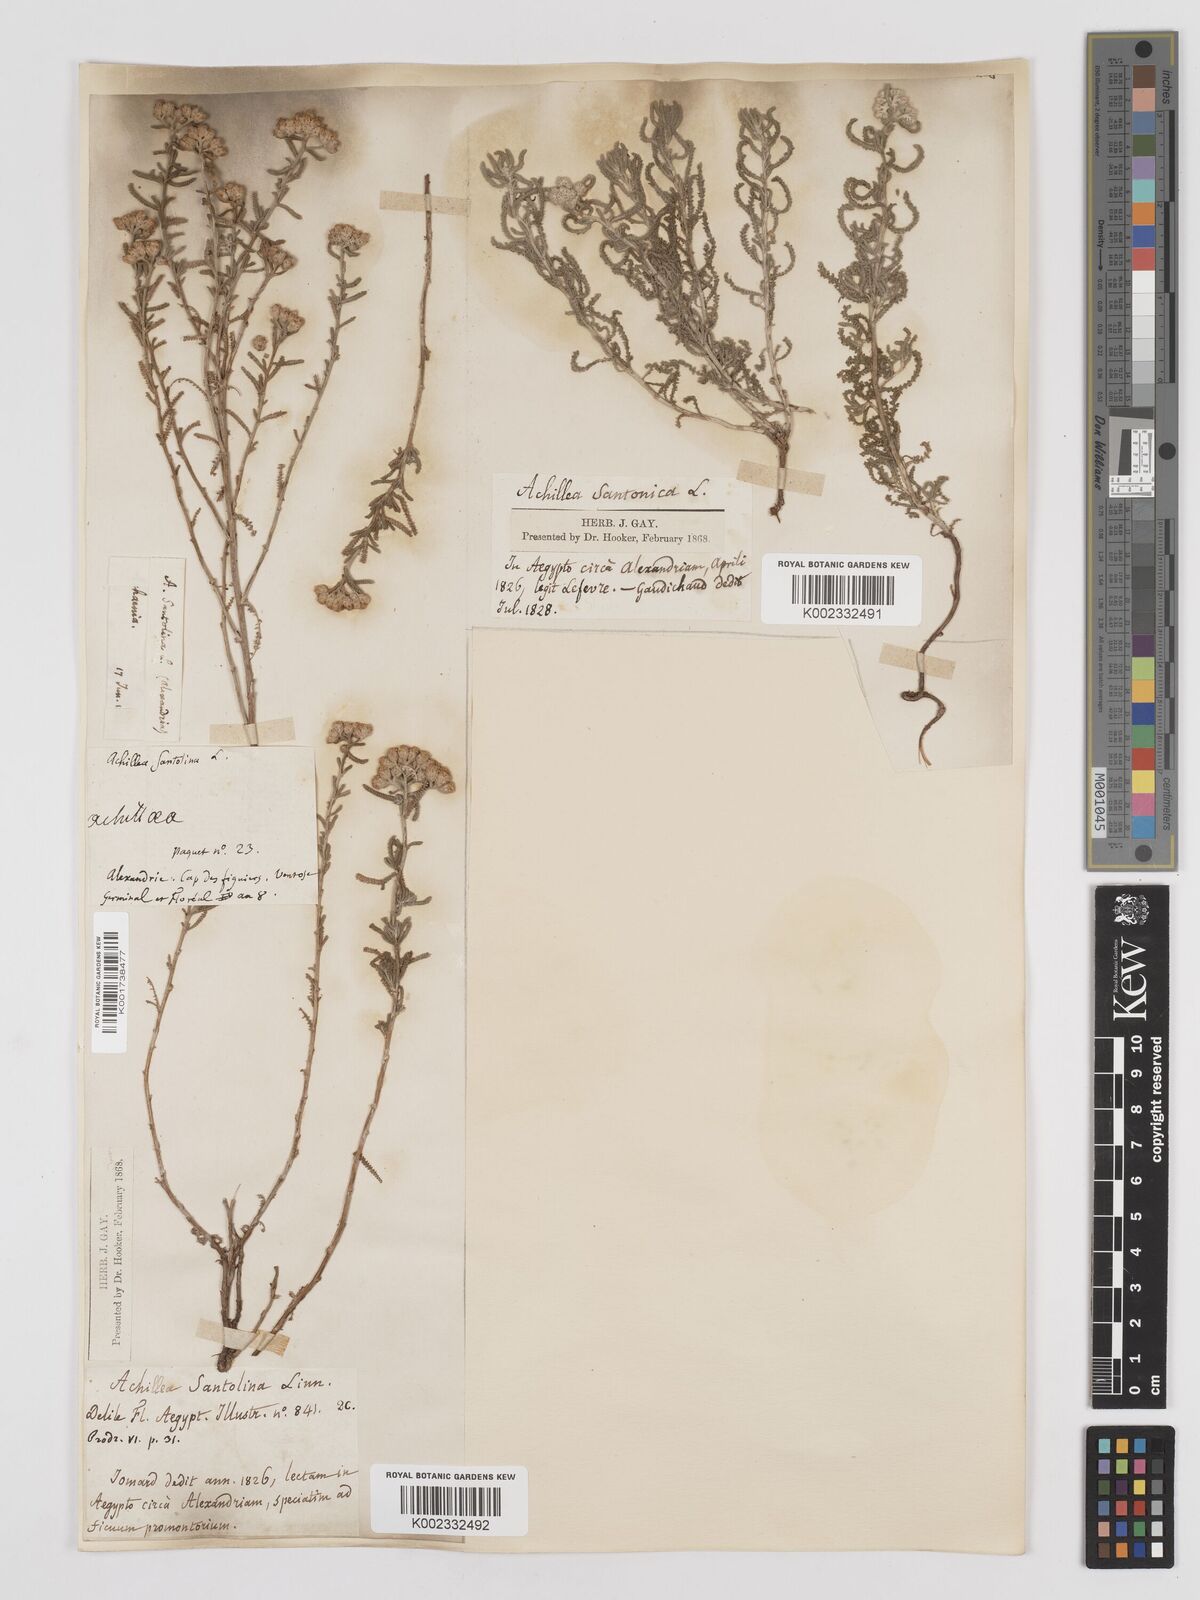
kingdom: Plantae
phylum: Tracheophyta
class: Magnoliopsida
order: Asterales
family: Asteraceae
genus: Achillea
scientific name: Achillea tenuifolia
